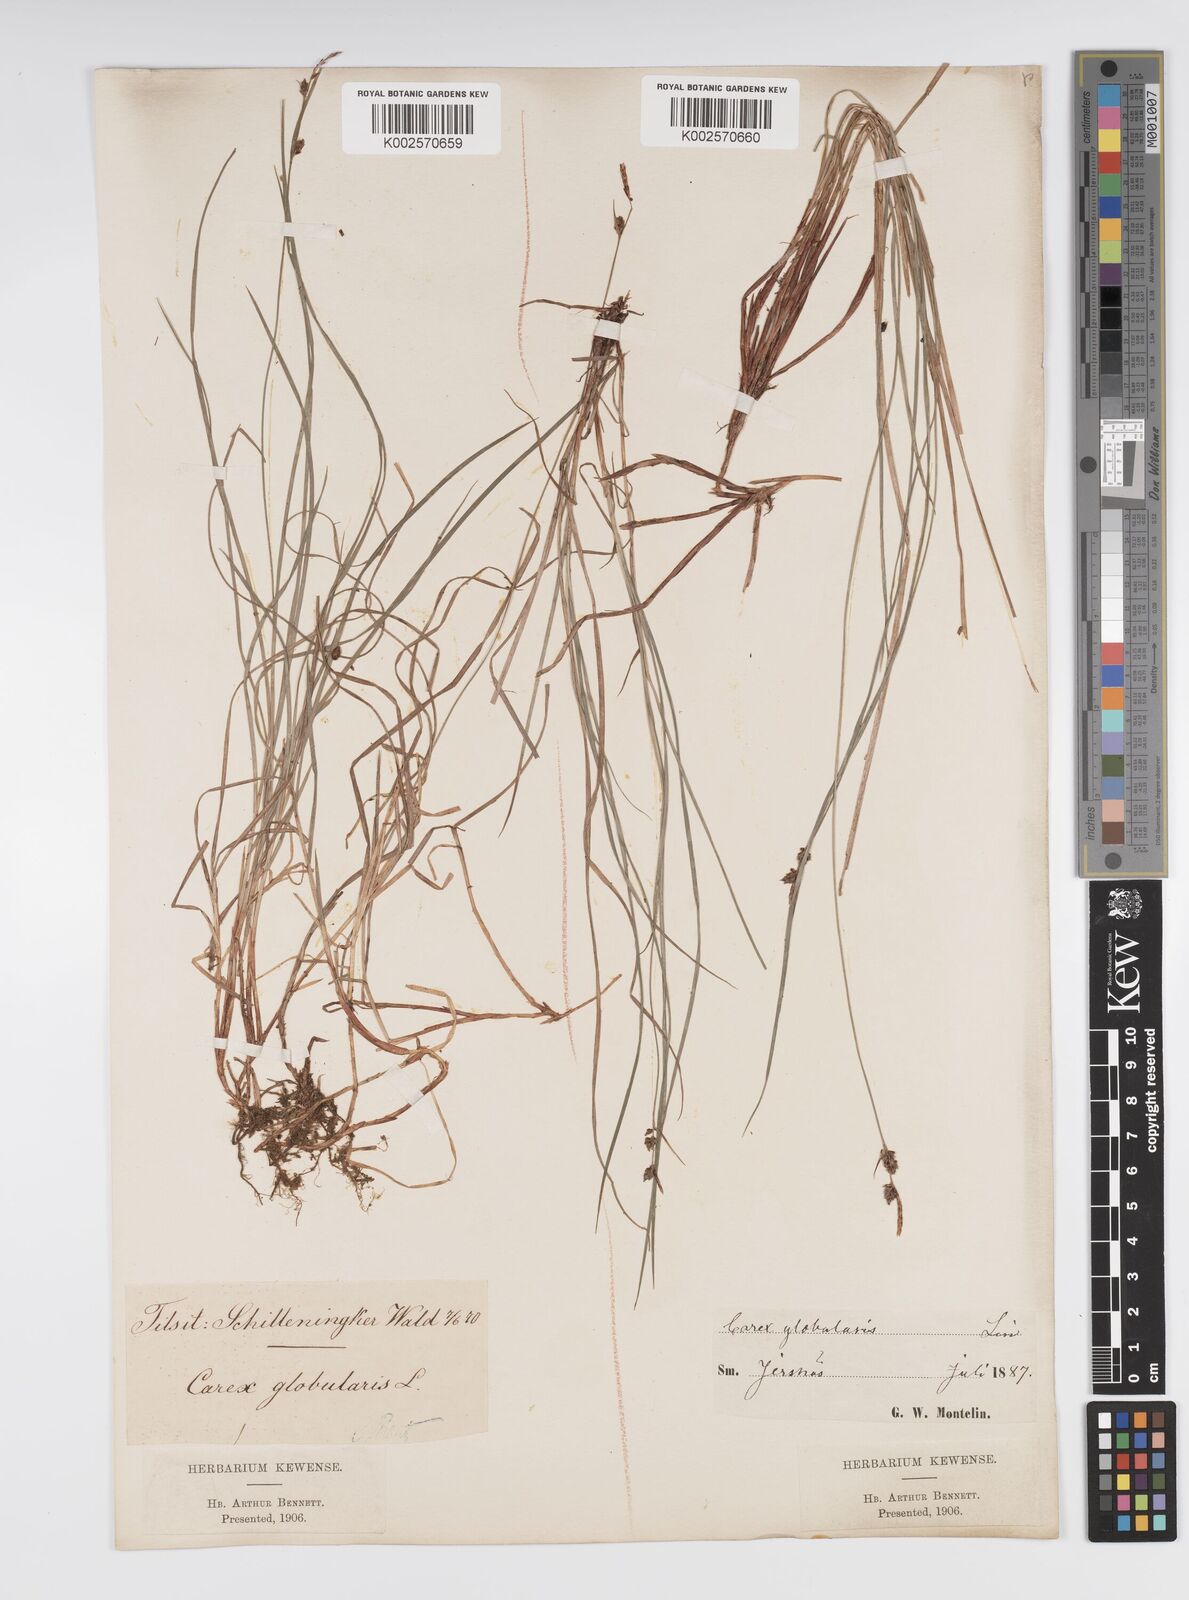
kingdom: Plantae
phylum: Tracheophyta
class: Liliopsida
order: Poales
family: Cyperaceae
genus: Carex
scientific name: Carex globularis
